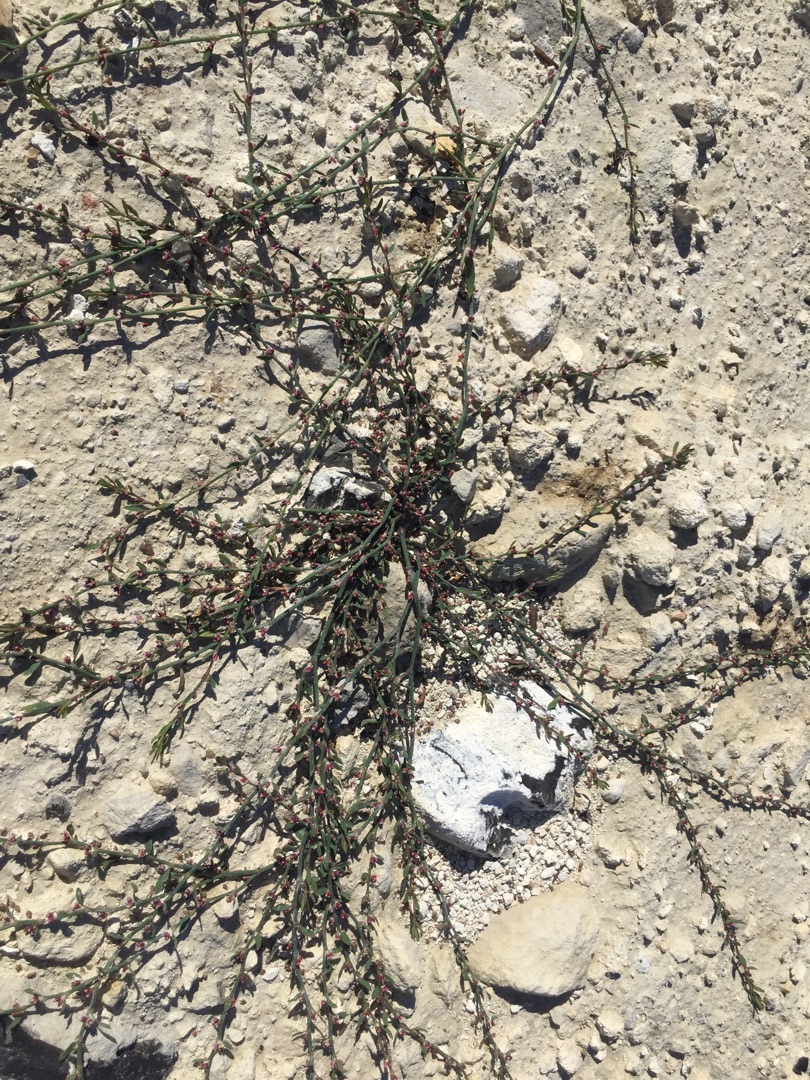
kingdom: Plantae
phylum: Tracheophyta
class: Magnoliopsida
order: Caryophyllales
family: Polygonaceae
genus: Polygonum
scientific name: Polygonum arenastrum
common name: Liggende vej-pileurt
